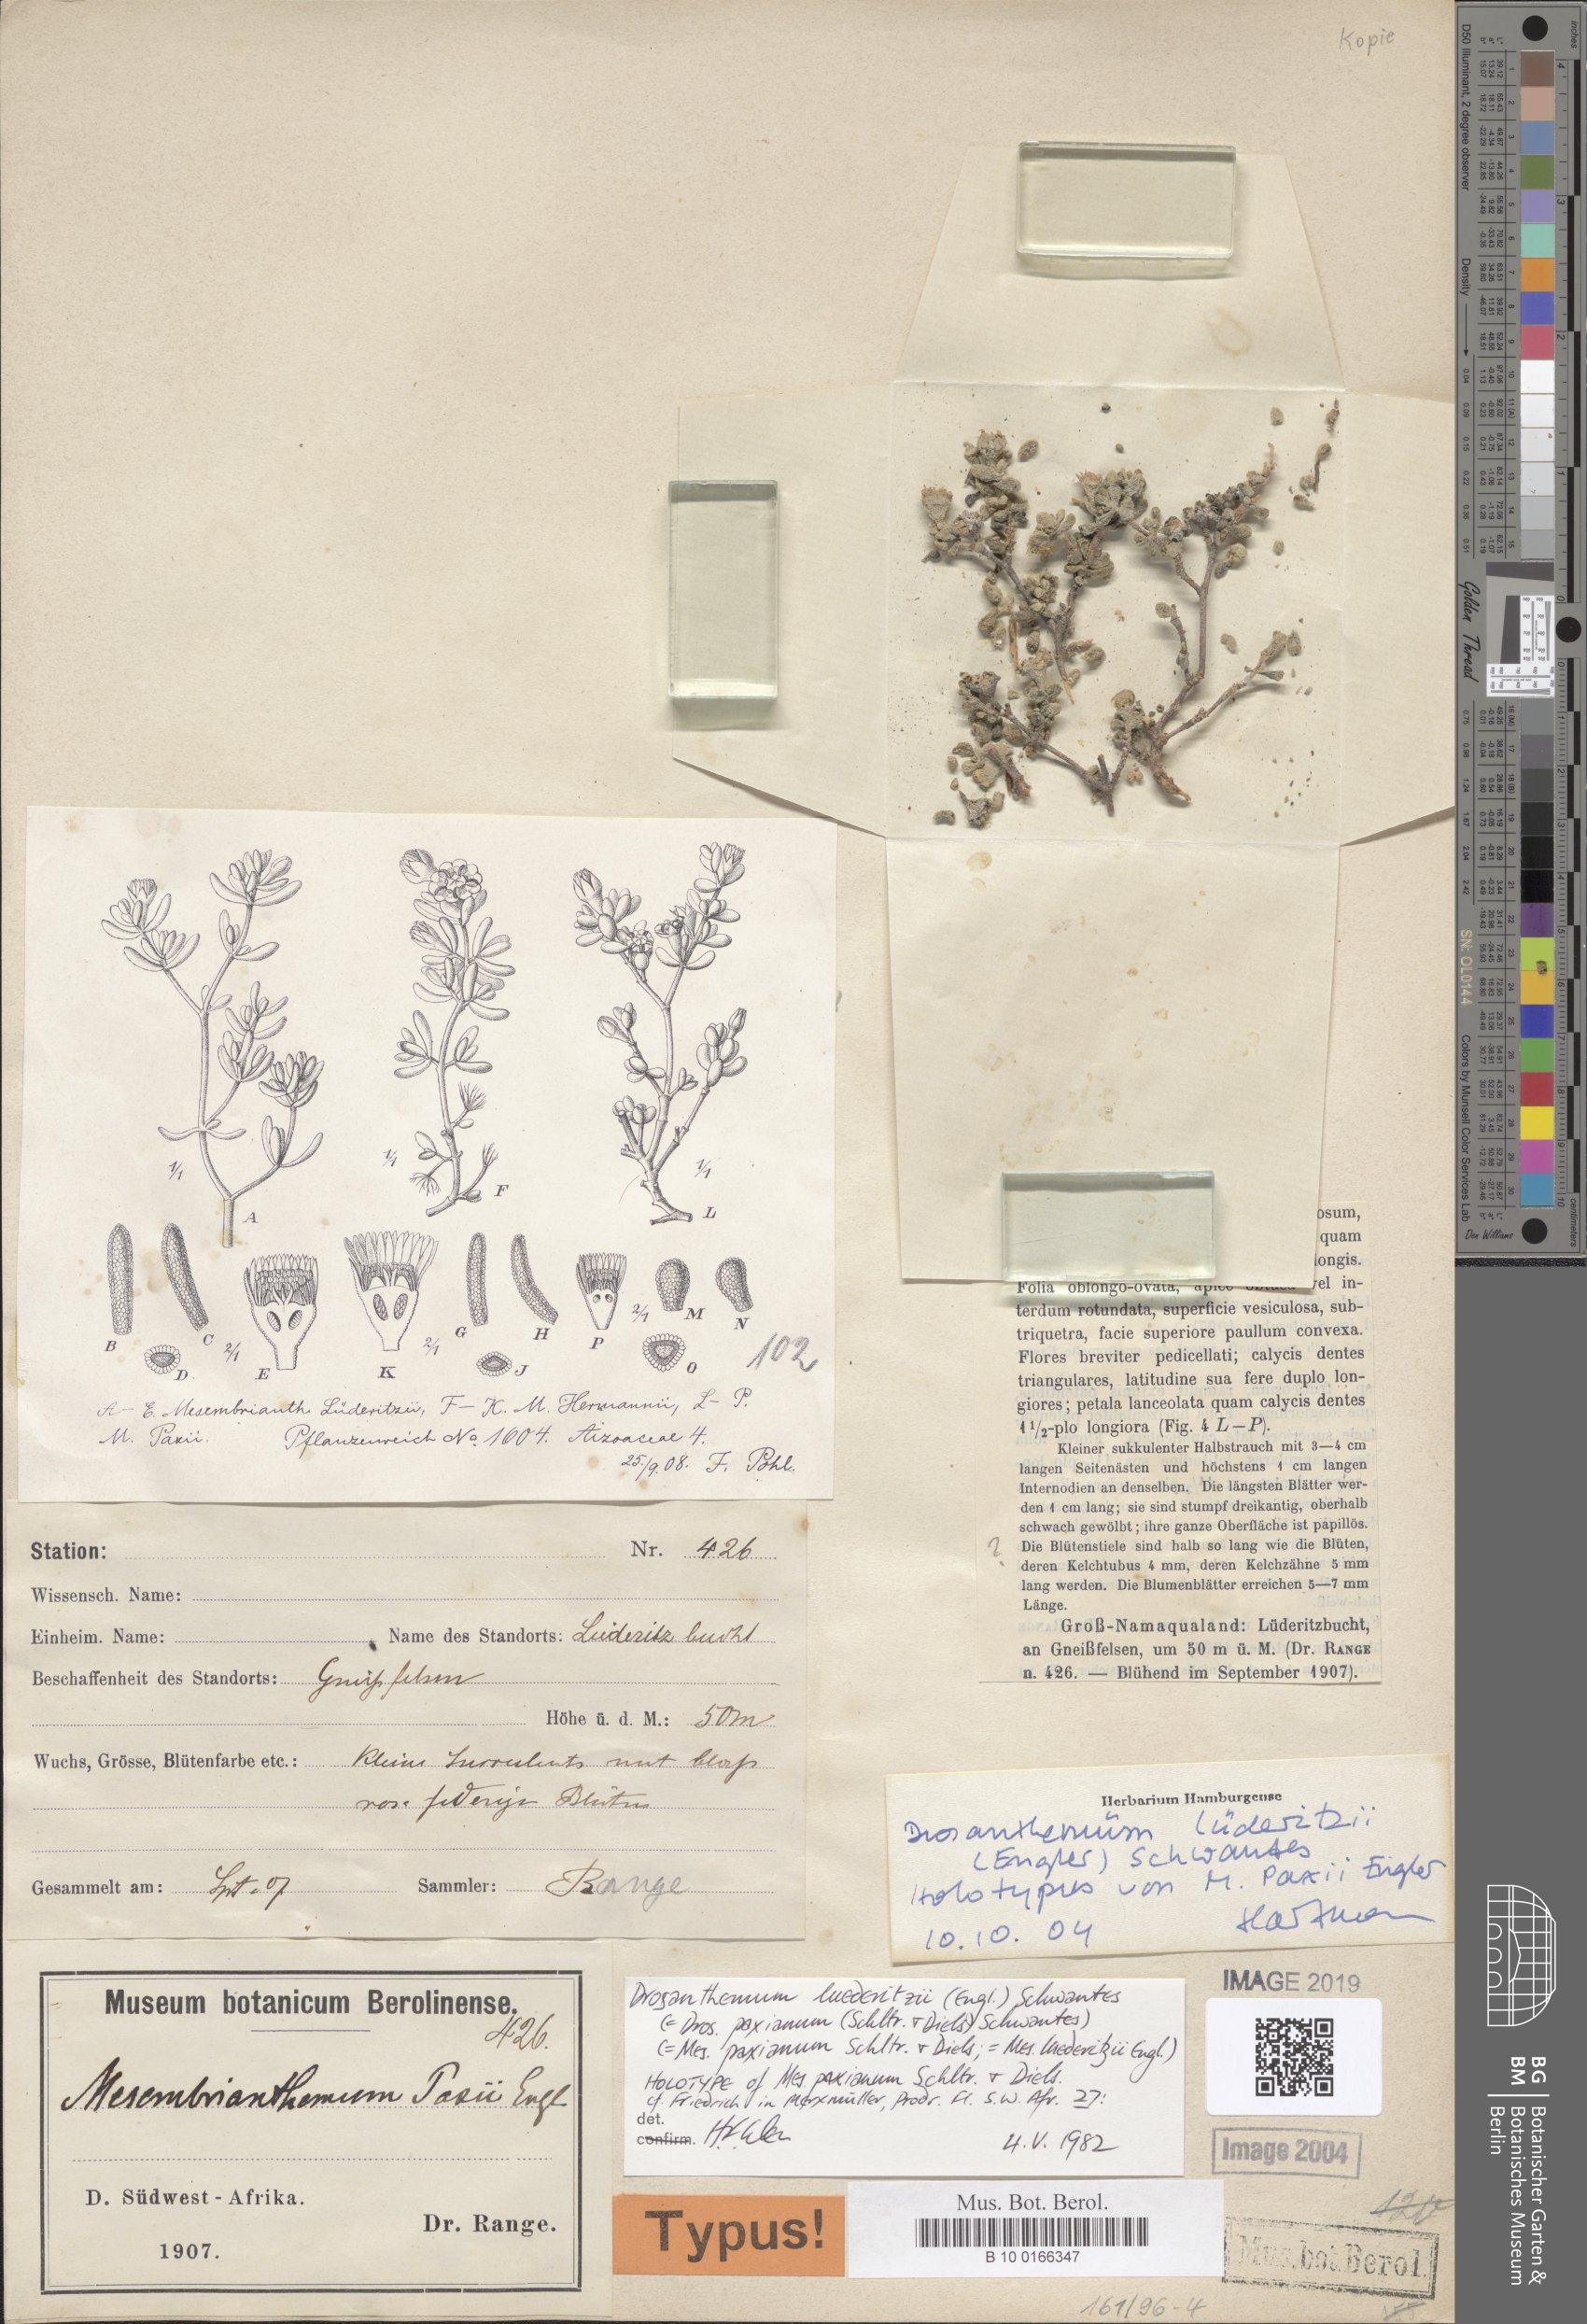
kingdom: Plantae
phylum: Tracheophyta
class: Magnoliopsida
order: Caryophyllales
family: Aizoaceae
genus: Drosanthemum
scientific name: Drosanthemum luederitzii
